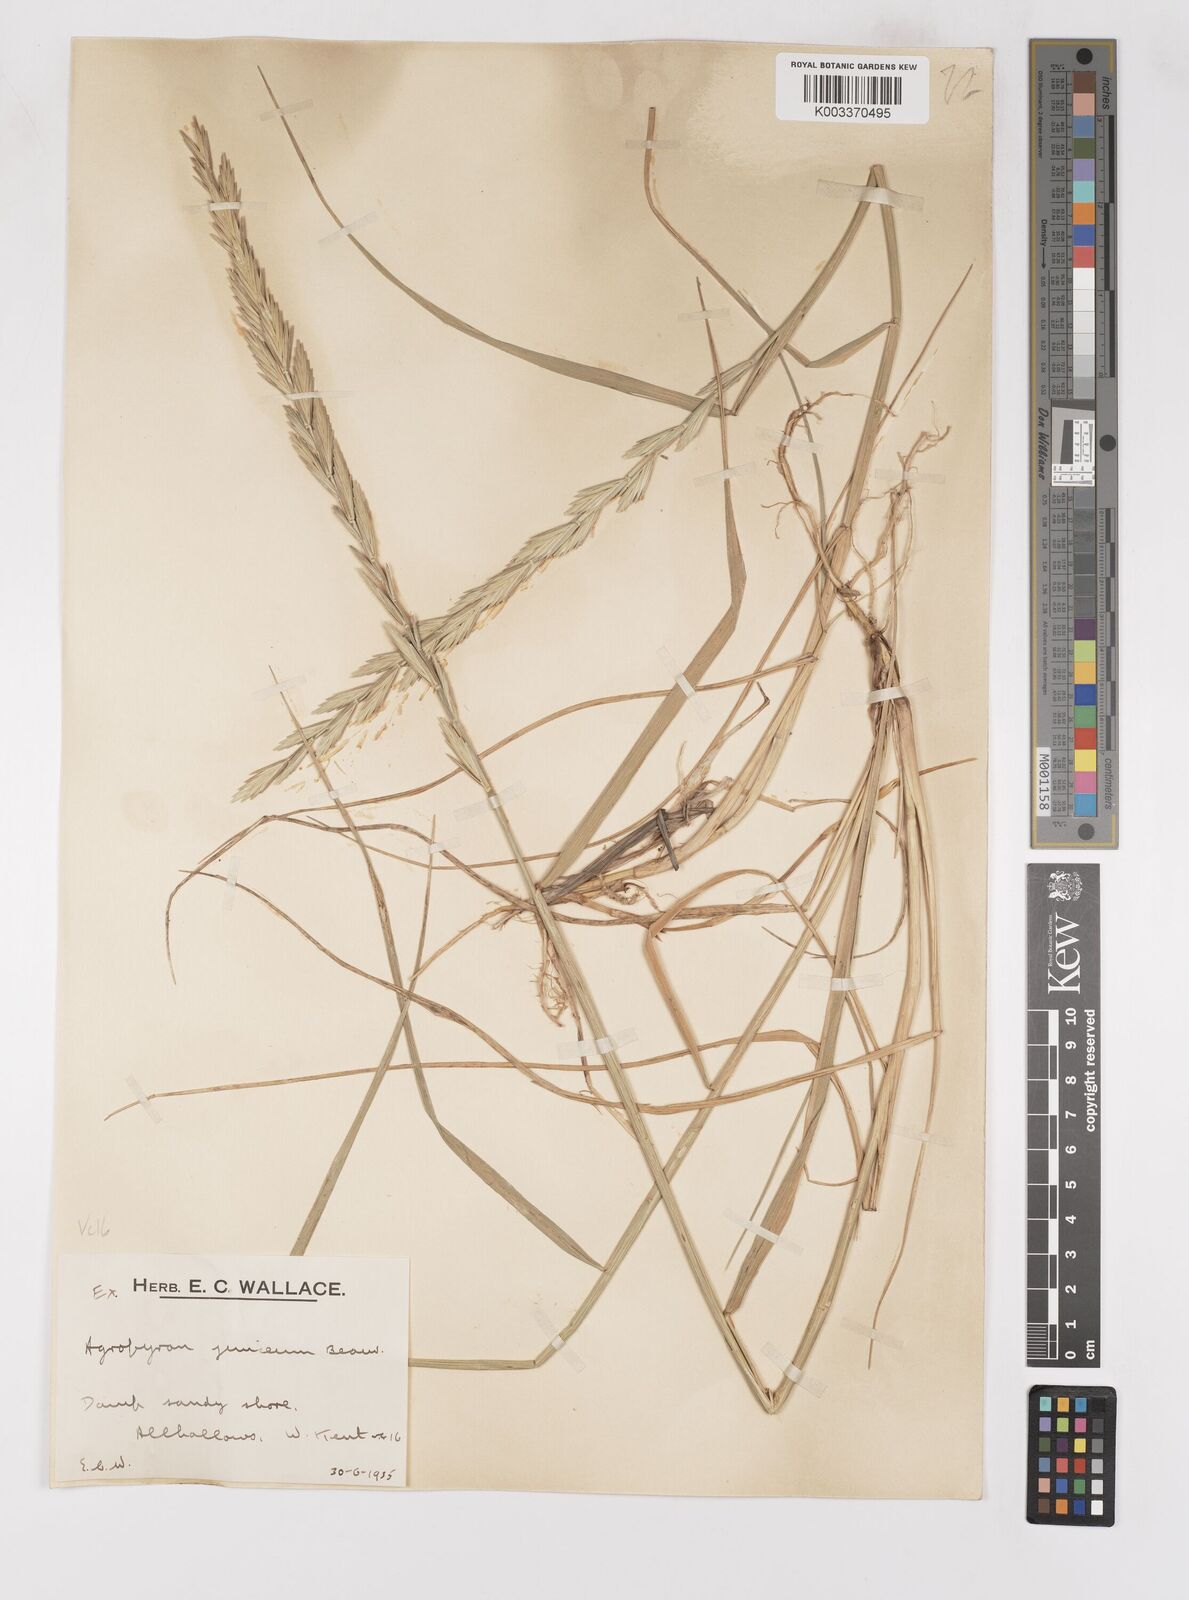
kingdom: Plantae
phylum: Tracheophyta
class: Liliopsida
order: Poales
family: Poaceae
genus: Thinoelymus
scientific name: Thinoelymus obtusiusculus
